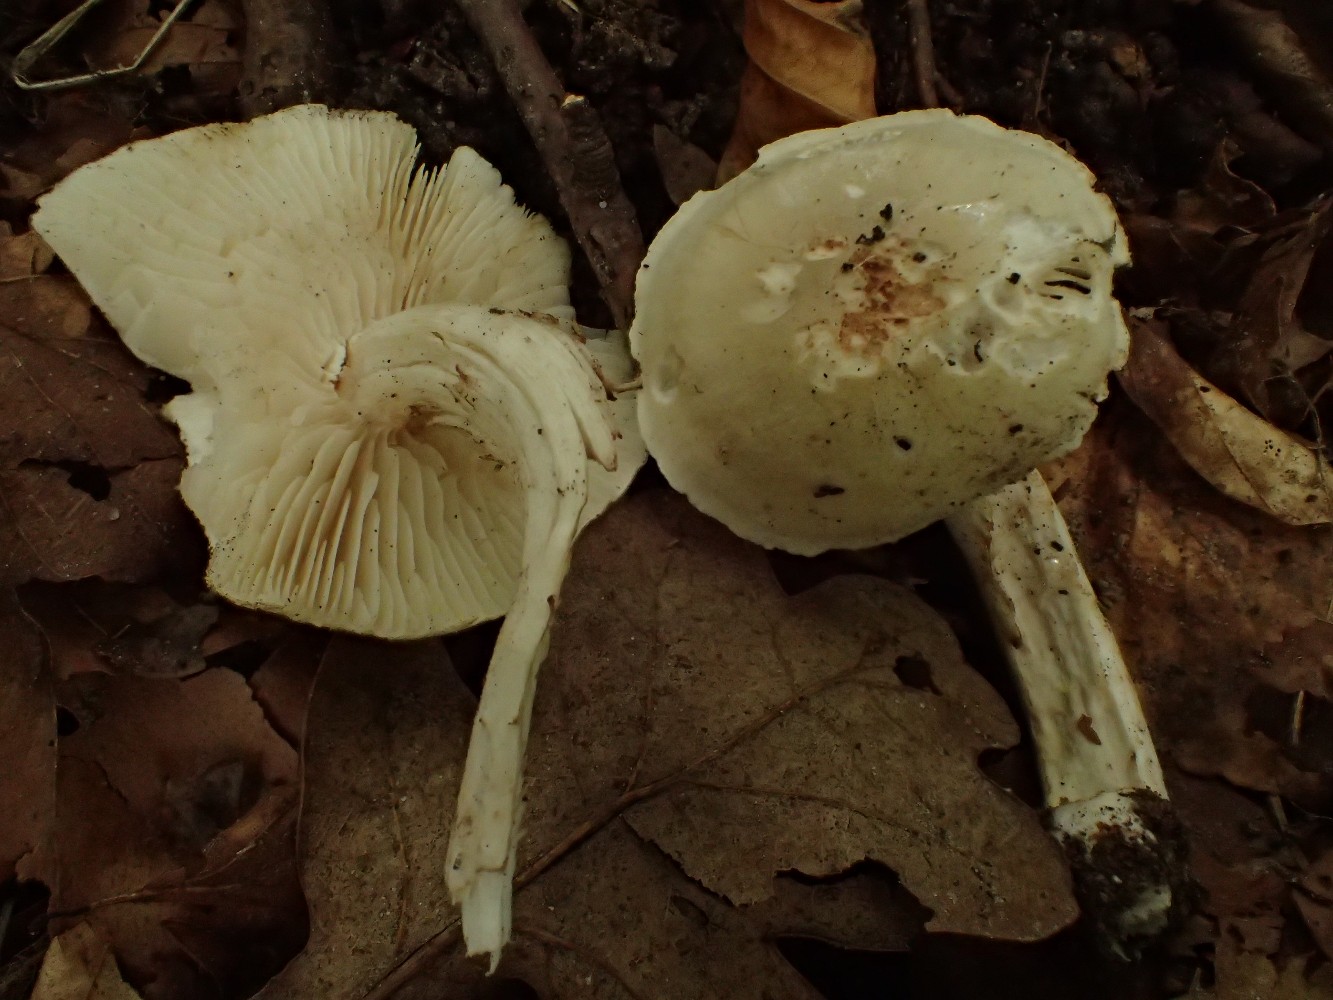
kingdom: Fungi
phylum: Basidiomycota
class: Agaricomycetes
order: Agaricales
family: Tricholomataceae
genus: Tricholoma
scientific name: Tricholoma lascivum
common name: stinkende ridderhat
